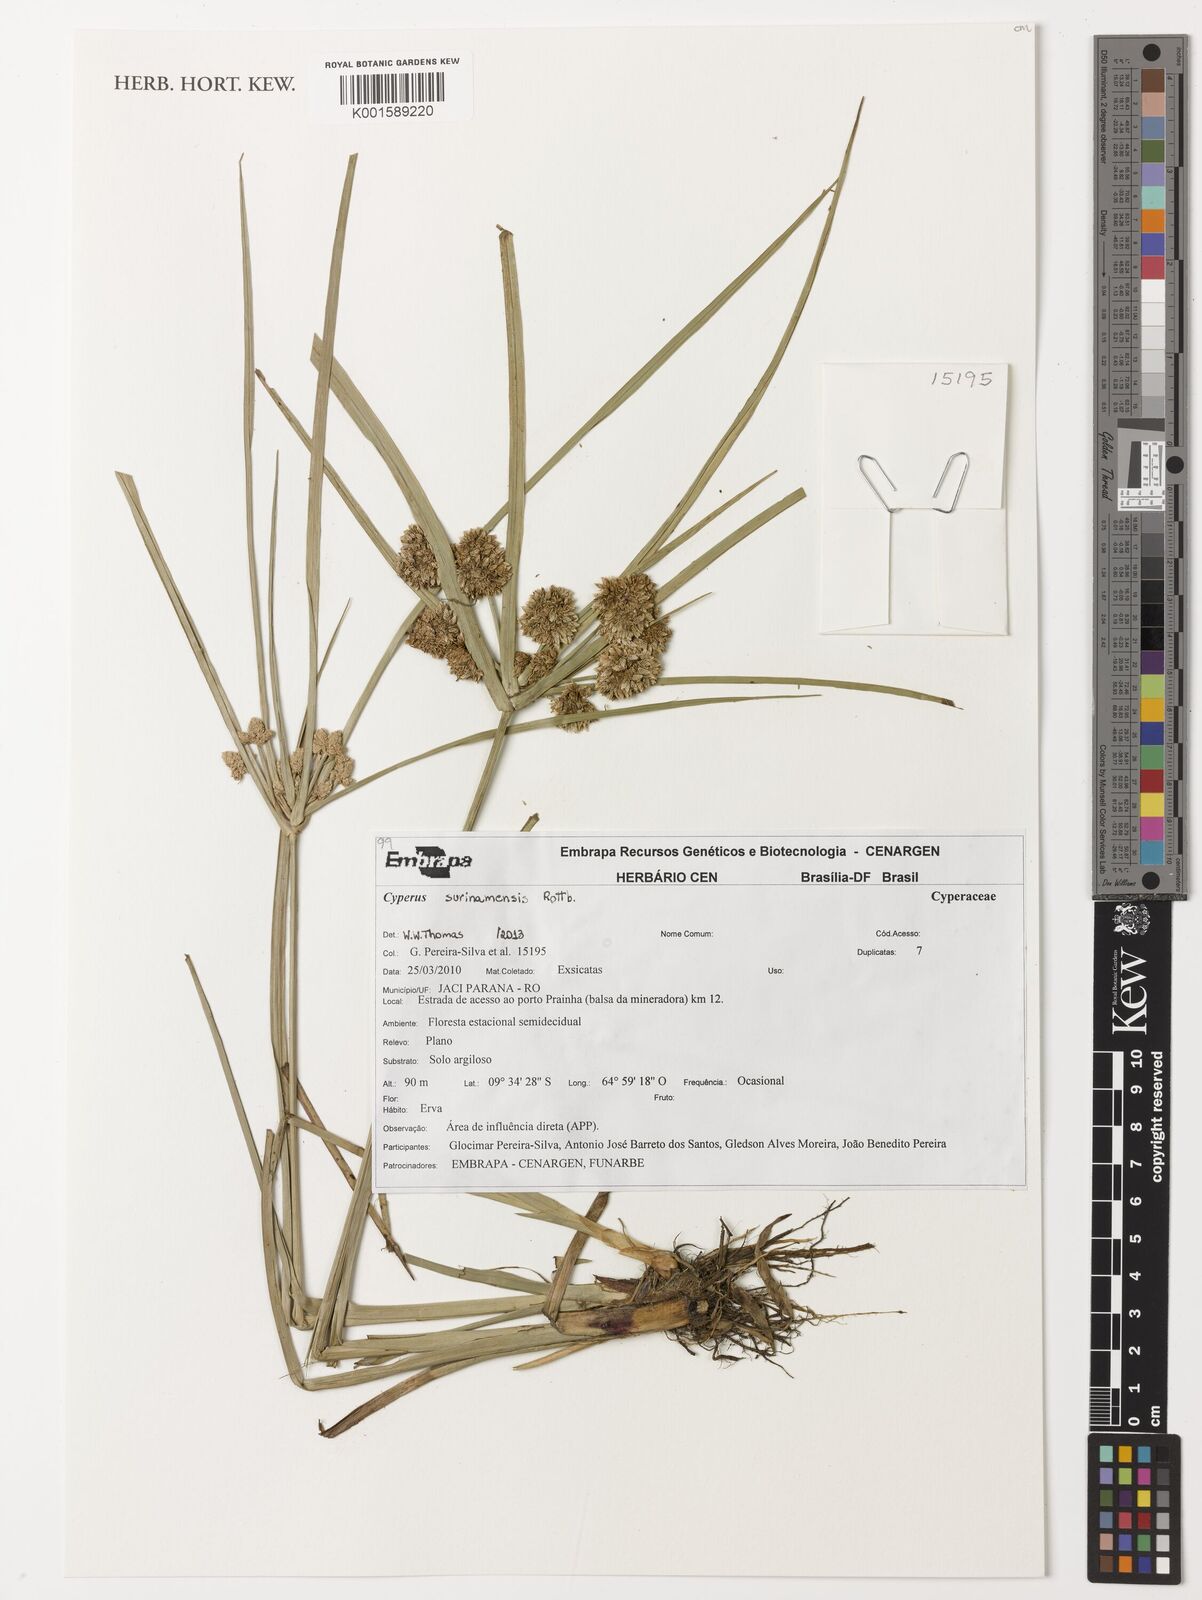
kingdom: Plantae
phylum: Tracheophyta
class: Liliopsida
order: Poales
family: Cyperaceae
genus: Cyperus
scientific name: Cyperus surinamensis
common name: Tropical flat sedge
